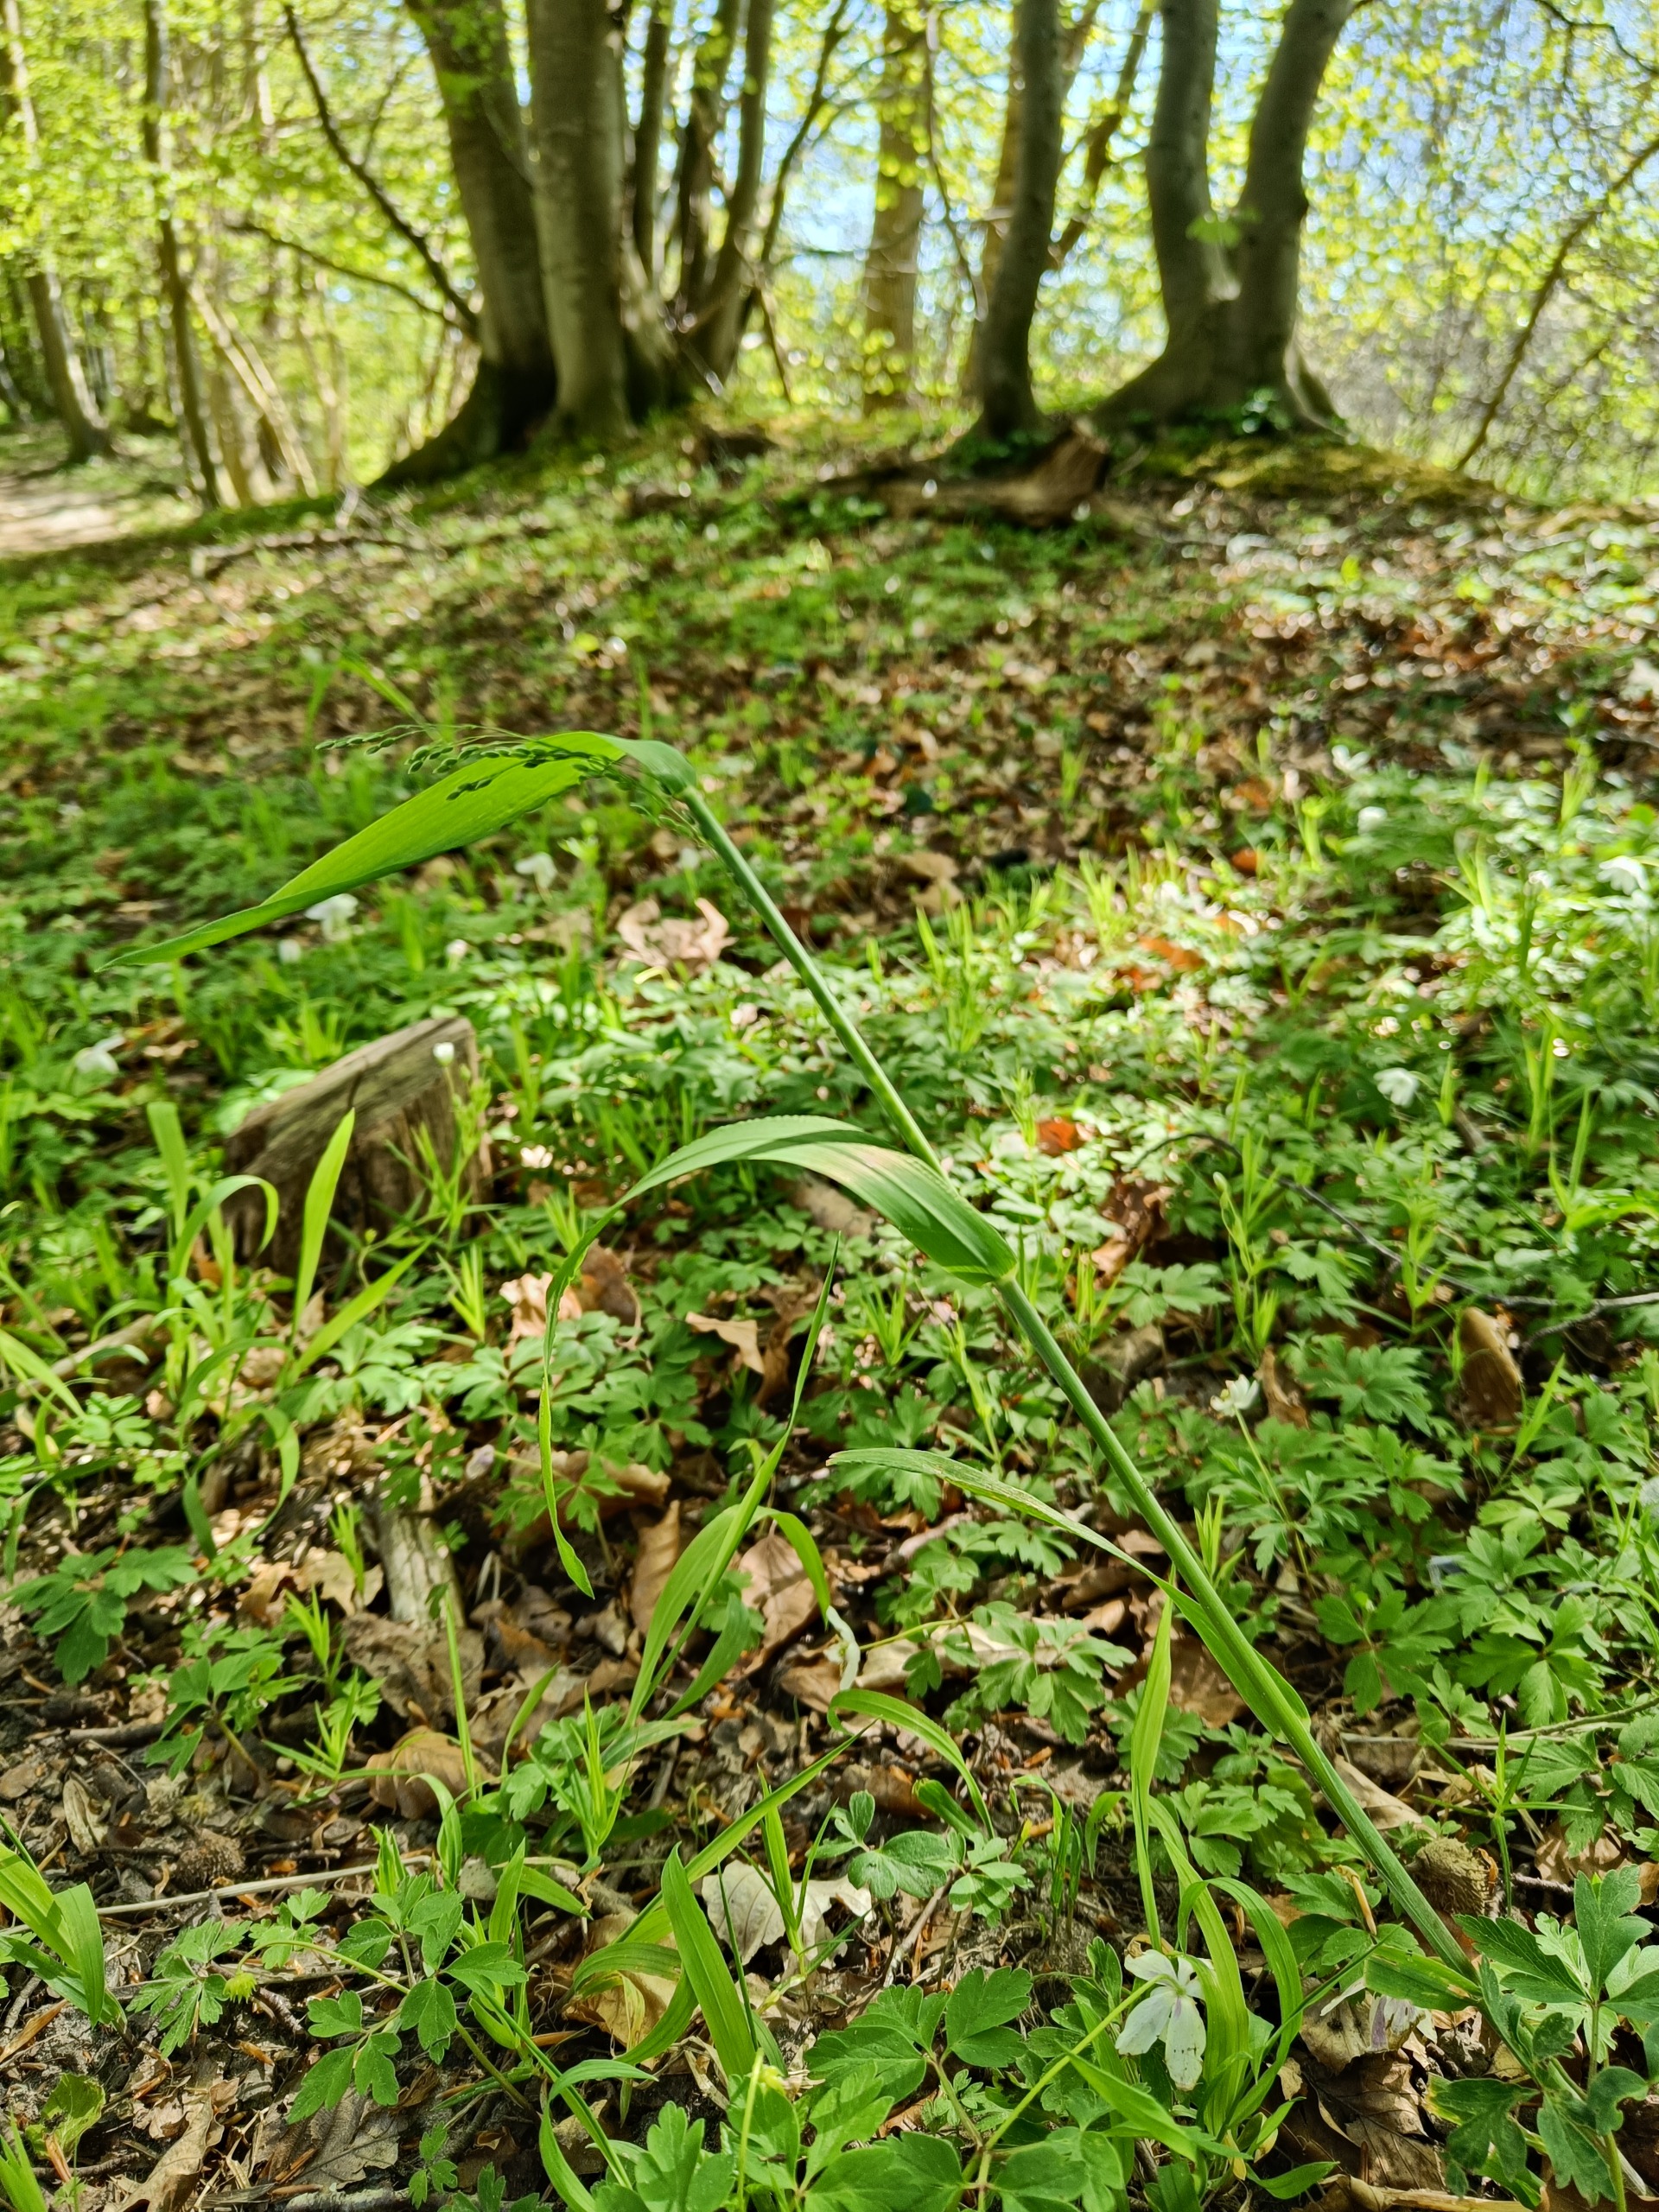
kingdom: Plantae
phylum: Tracheophyta
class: Liliopsida
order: Poales
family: Poaceae
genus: Milium
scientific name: Milium effusum
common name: Miliegræs
